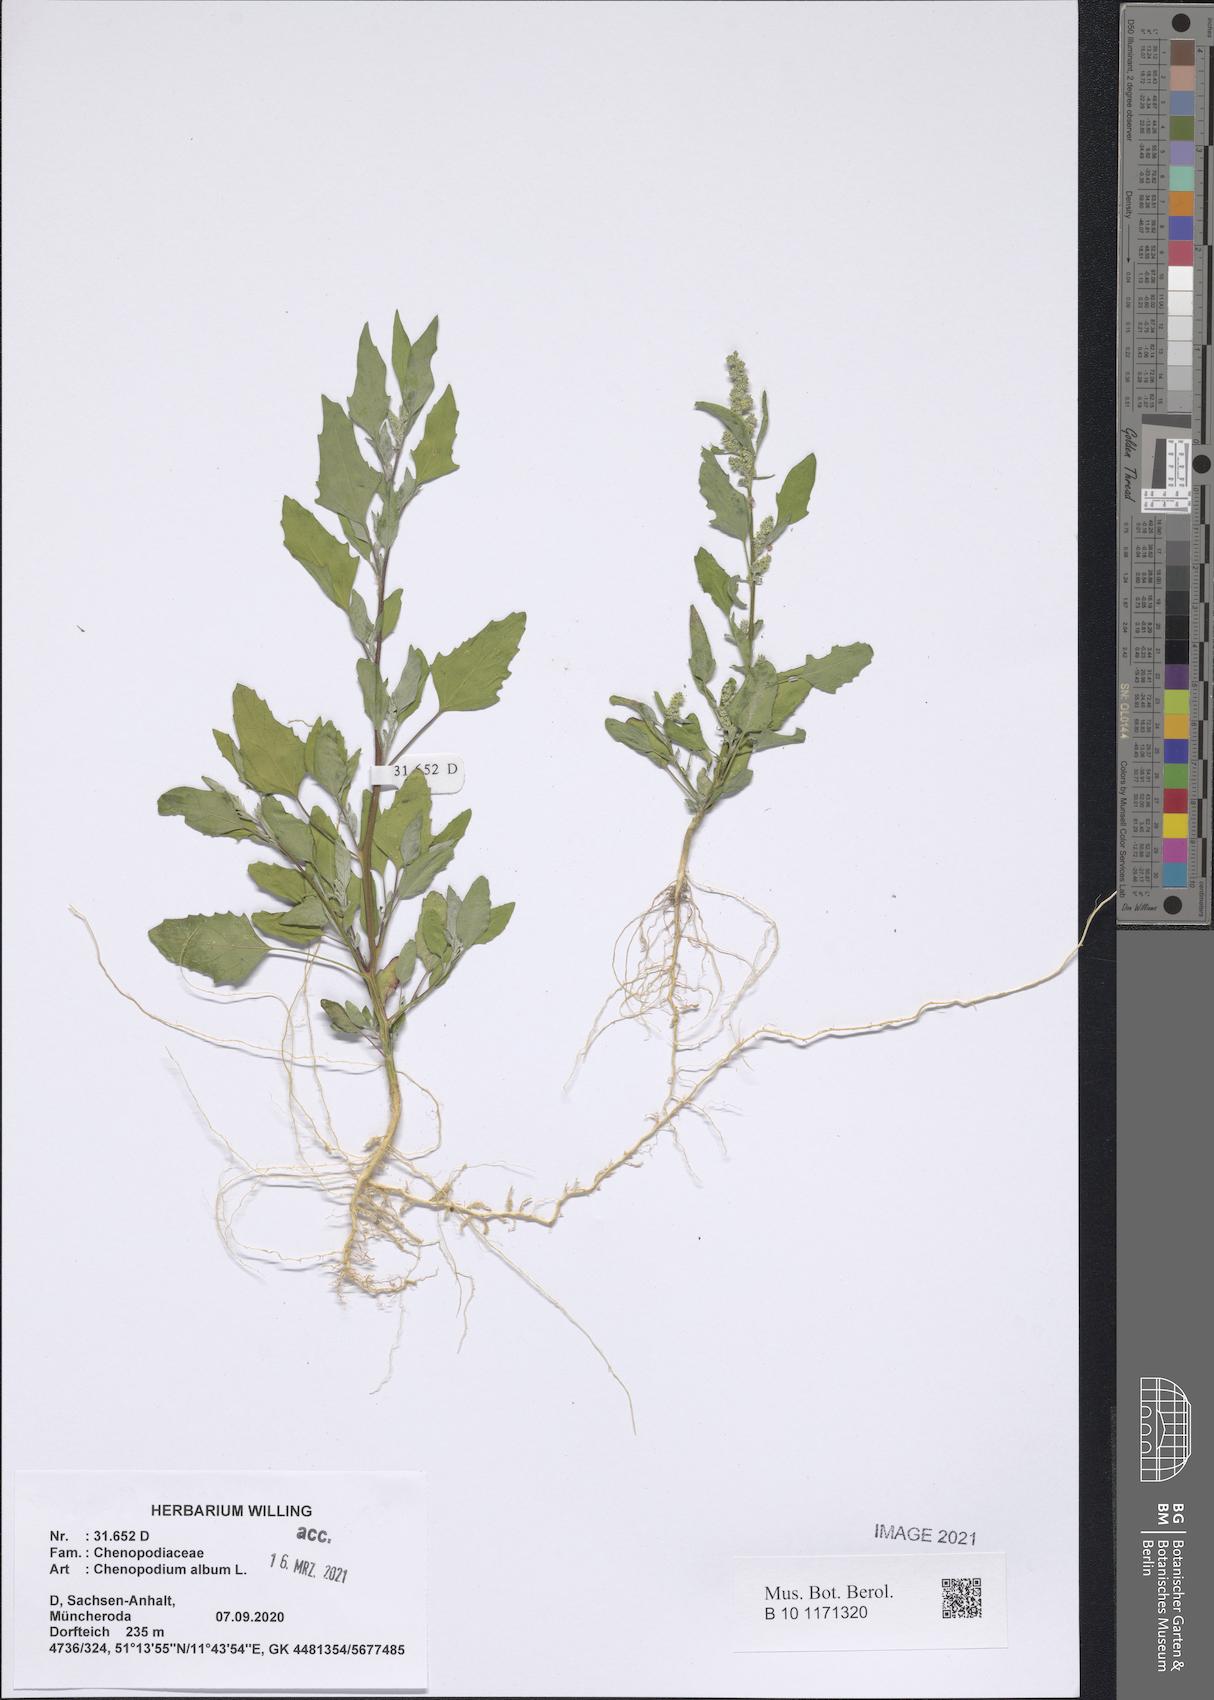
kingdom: Plantae
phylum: Tracheophyta
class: Magnoliopsida
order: Caryophyllales
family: Amaranthaceae
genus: Chenopodium
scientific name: Chenopodium album
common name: Fat-hen
